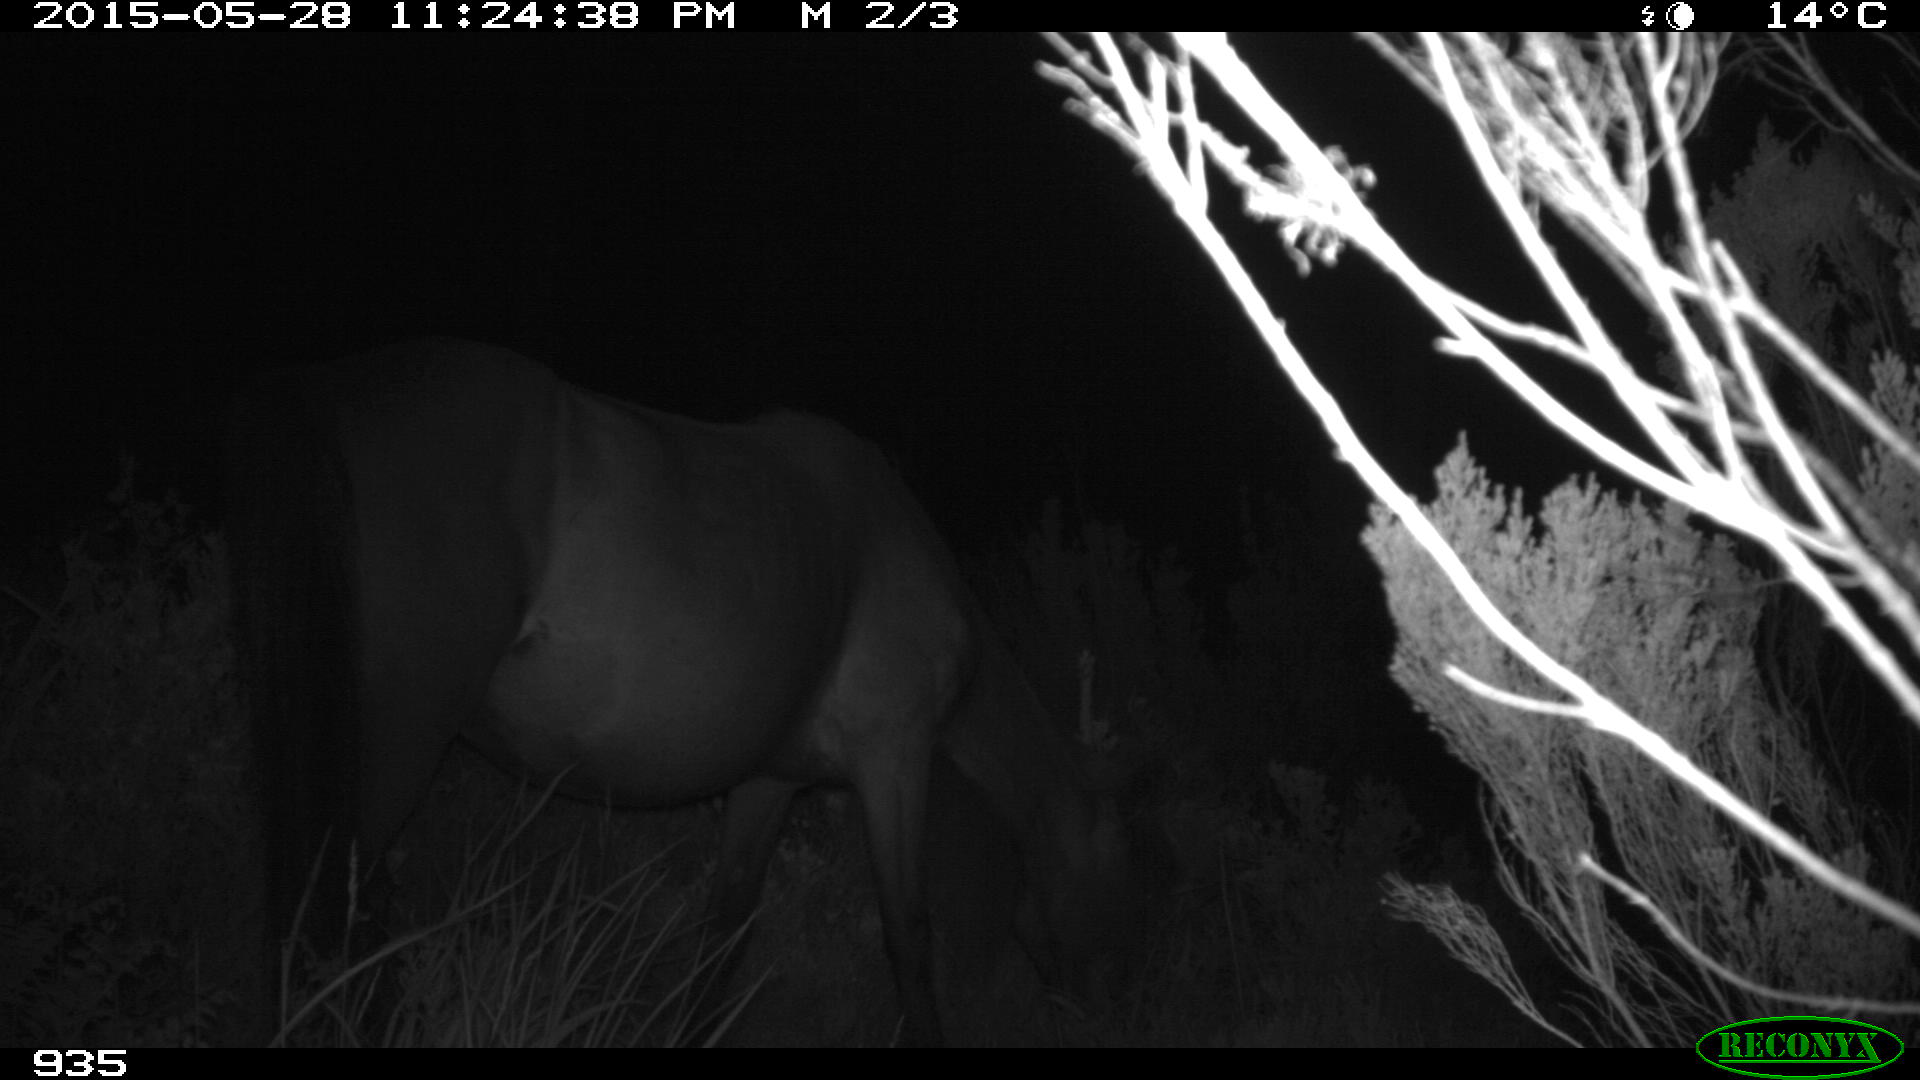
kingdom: Animalia
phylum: Chordata
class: Mammalia
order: Perissodactyla
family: Equidae
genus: Equus
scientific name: Equus caballus
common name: Horse
